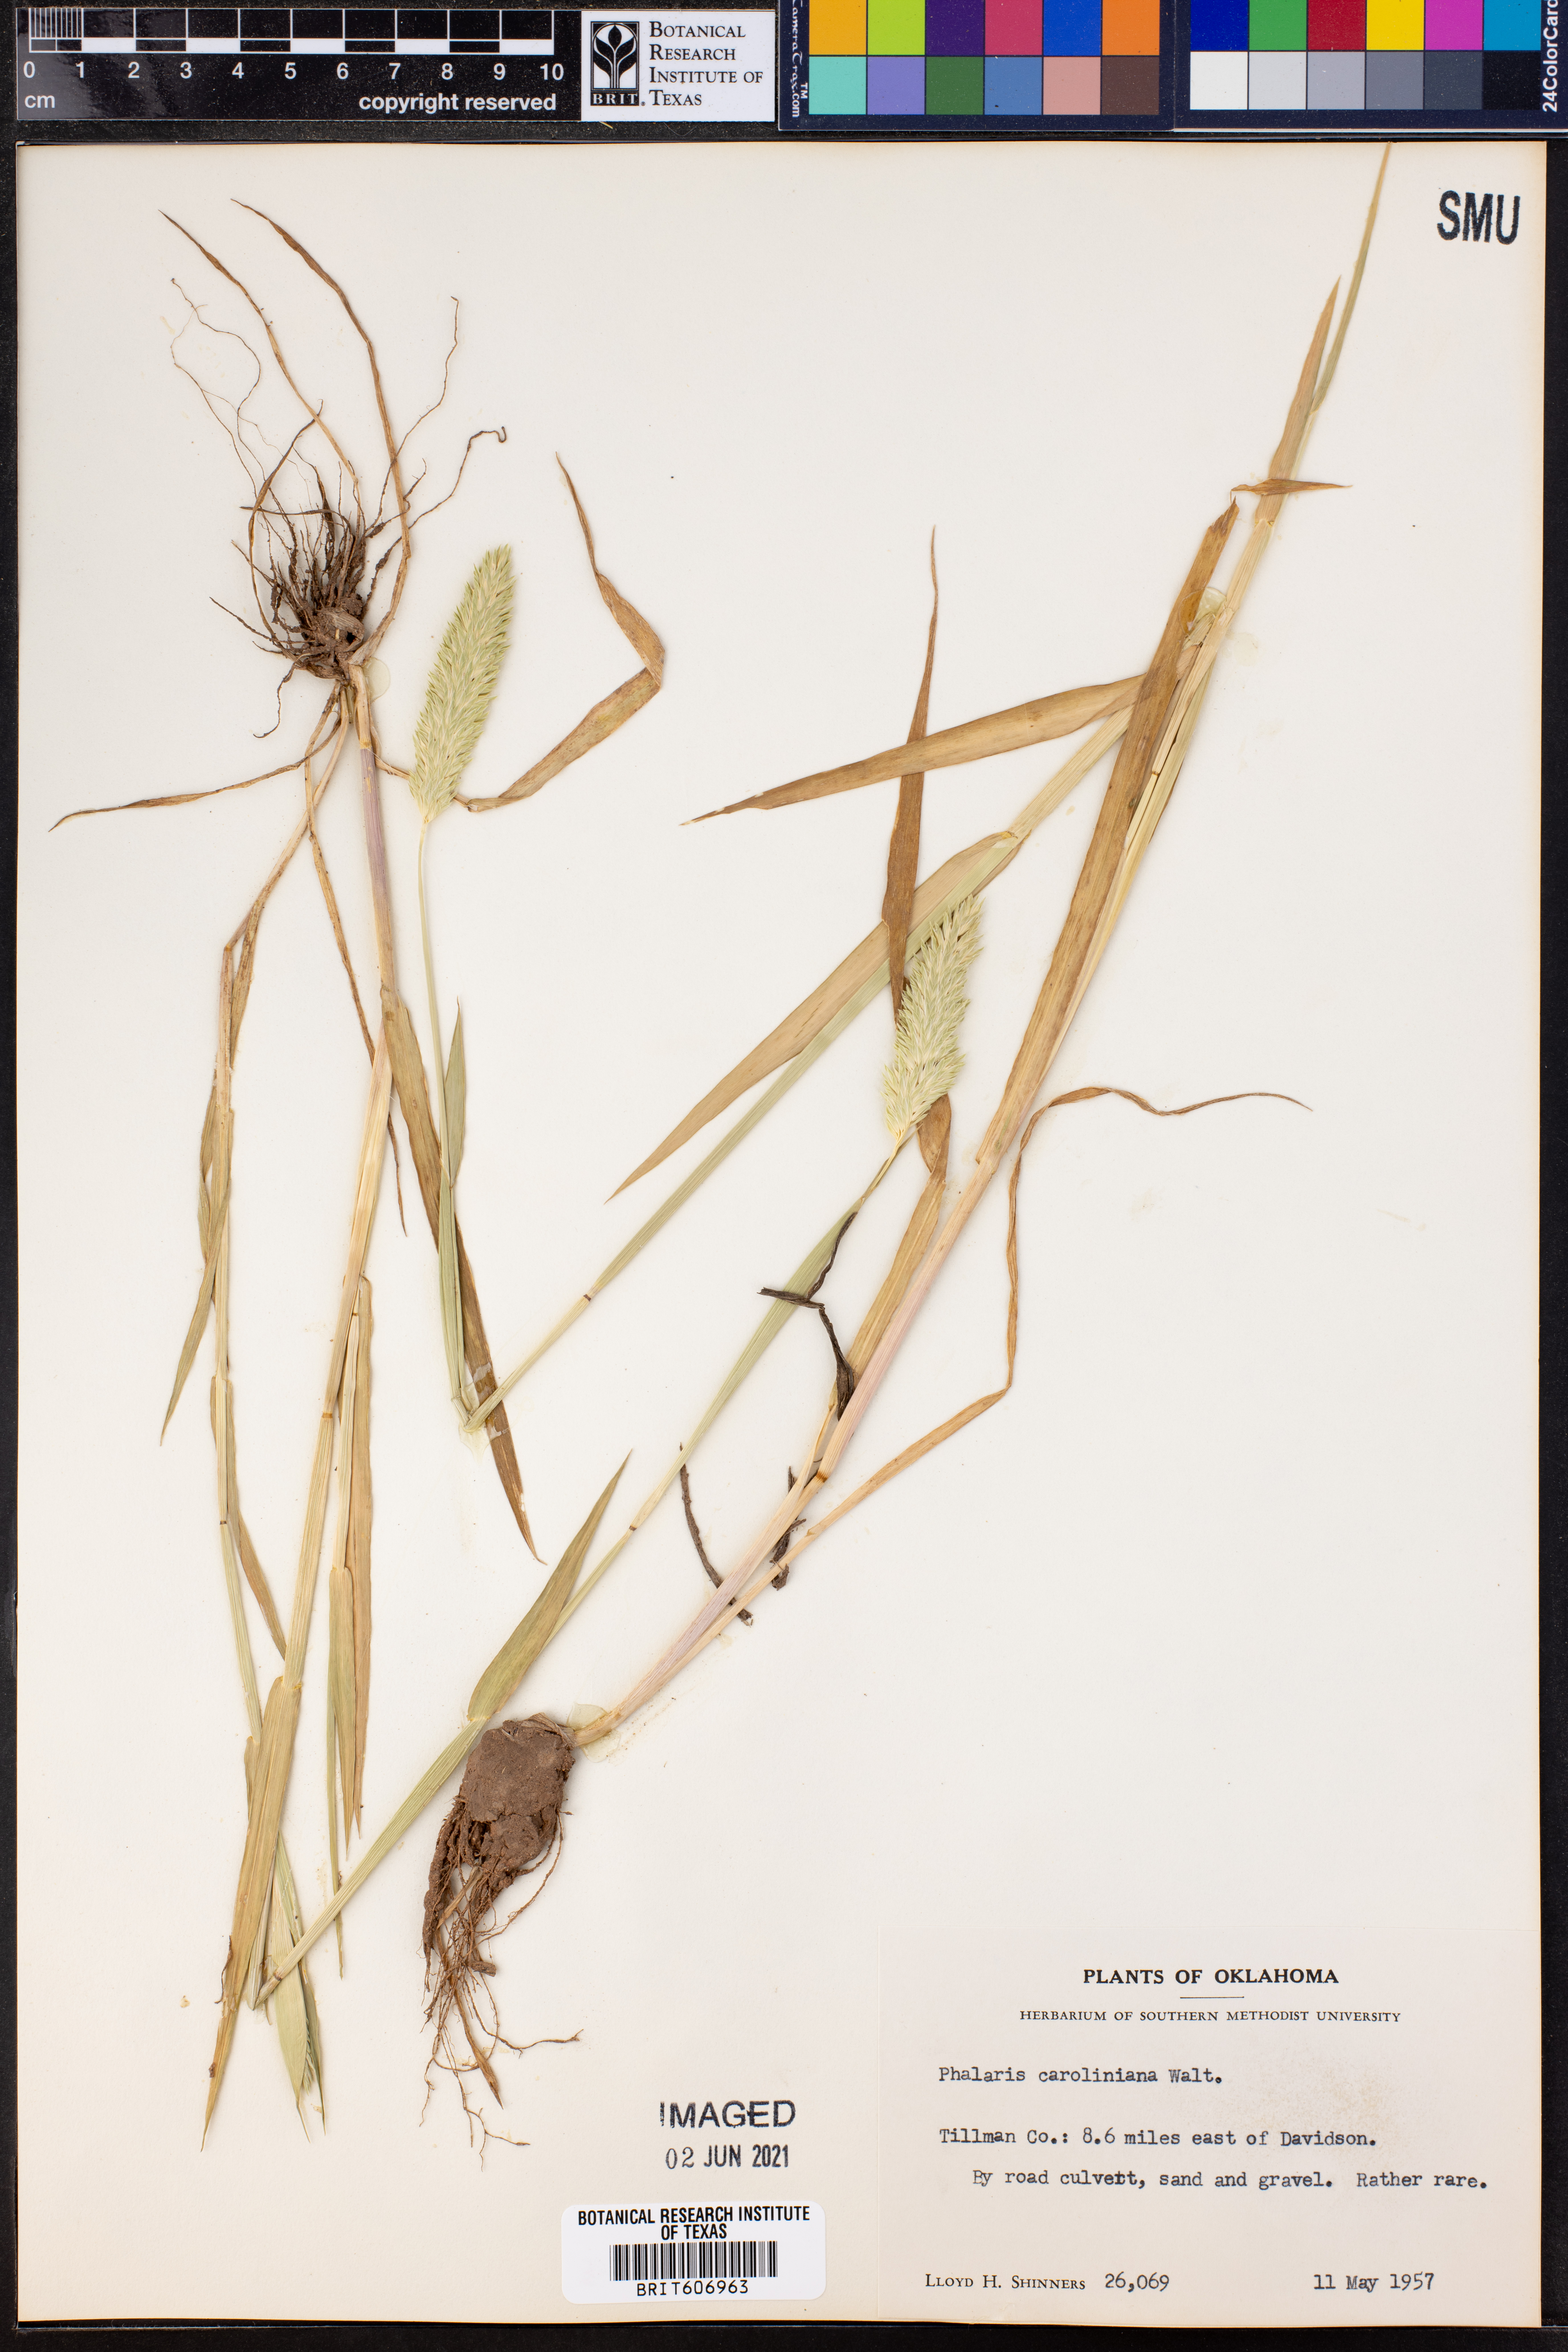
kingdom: Plantae
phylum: Tracheophyta
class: Liliopsida
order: Poales
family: Poaceae
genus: Phalaris
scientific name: Phalaris caroliniana
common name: May grass
